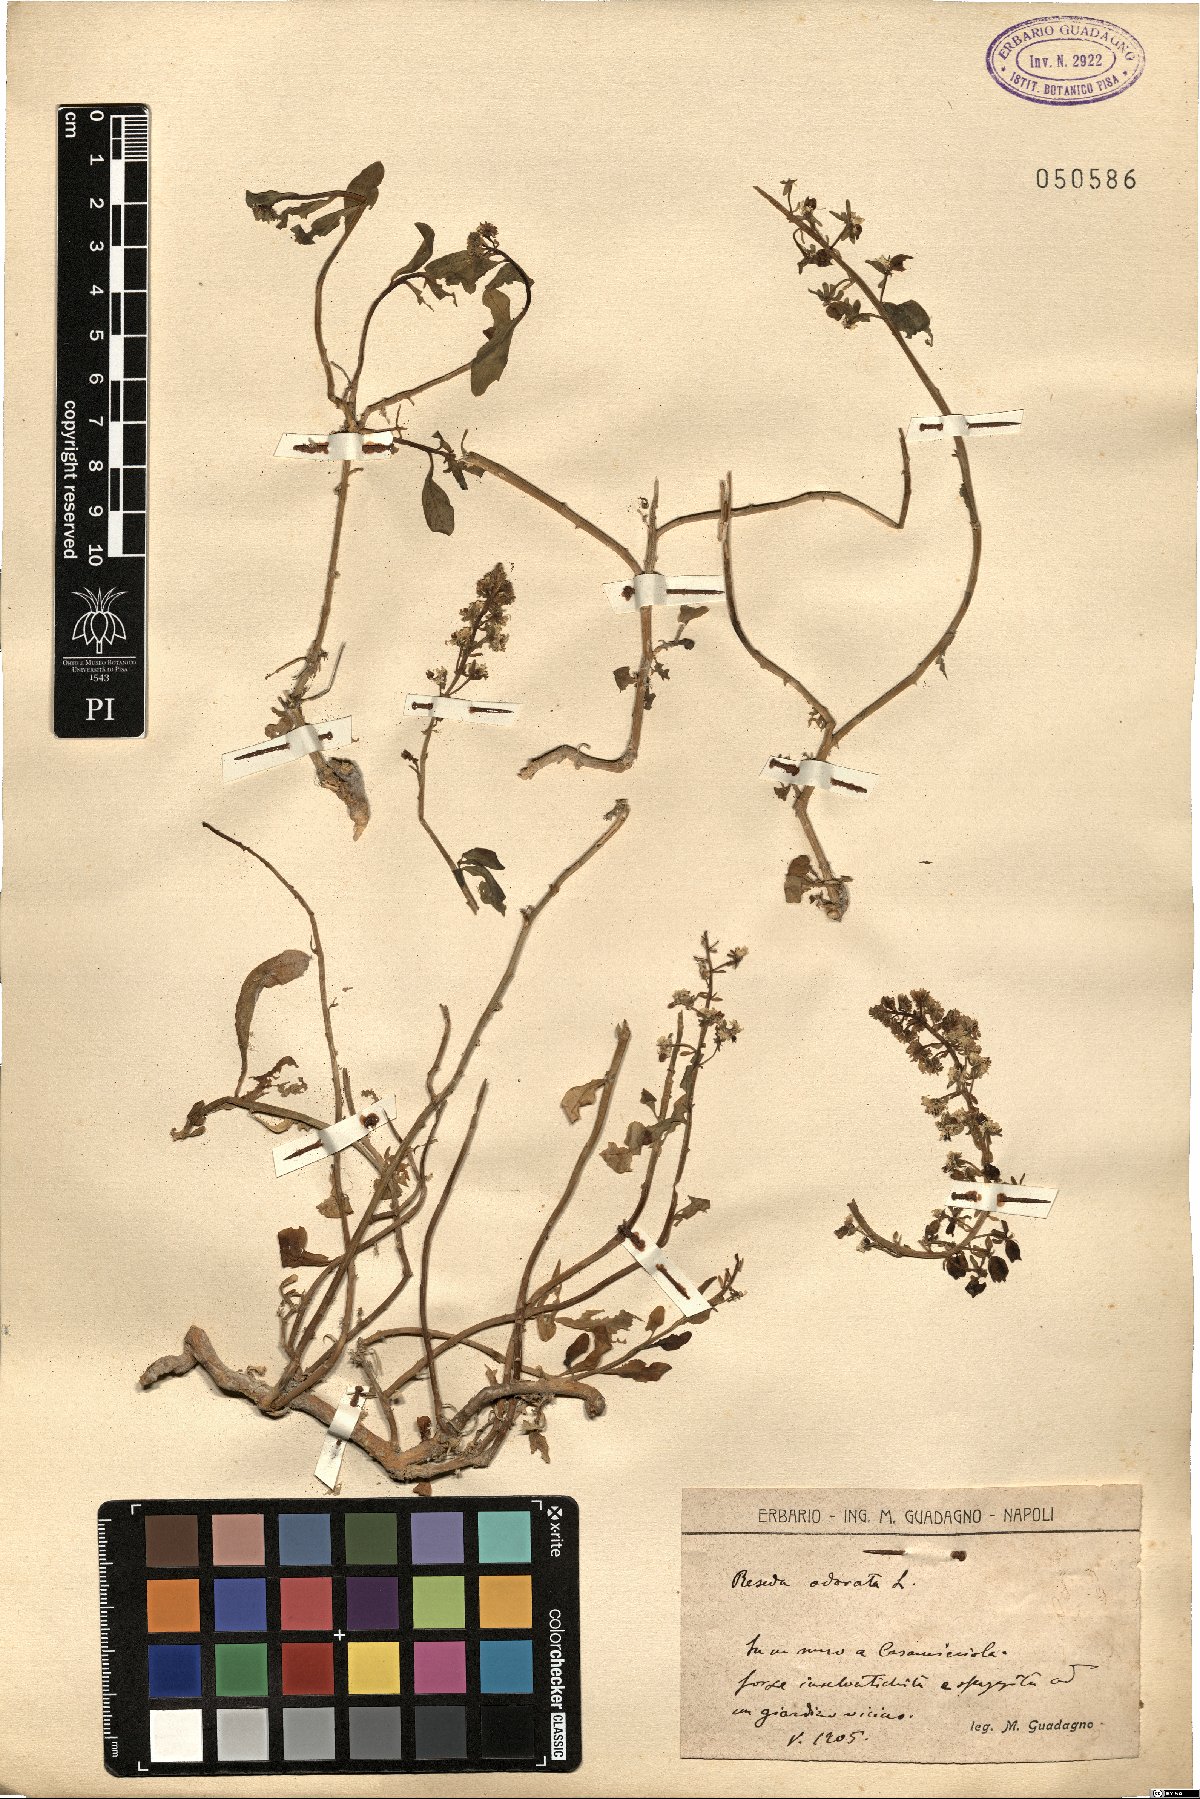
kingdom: Plantae
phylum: Tracheophyta
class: Magnoliopsida
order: Brassicales
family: Resedaceae
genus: Reseda
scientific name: Reseda odorata
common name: Garden mignonette
